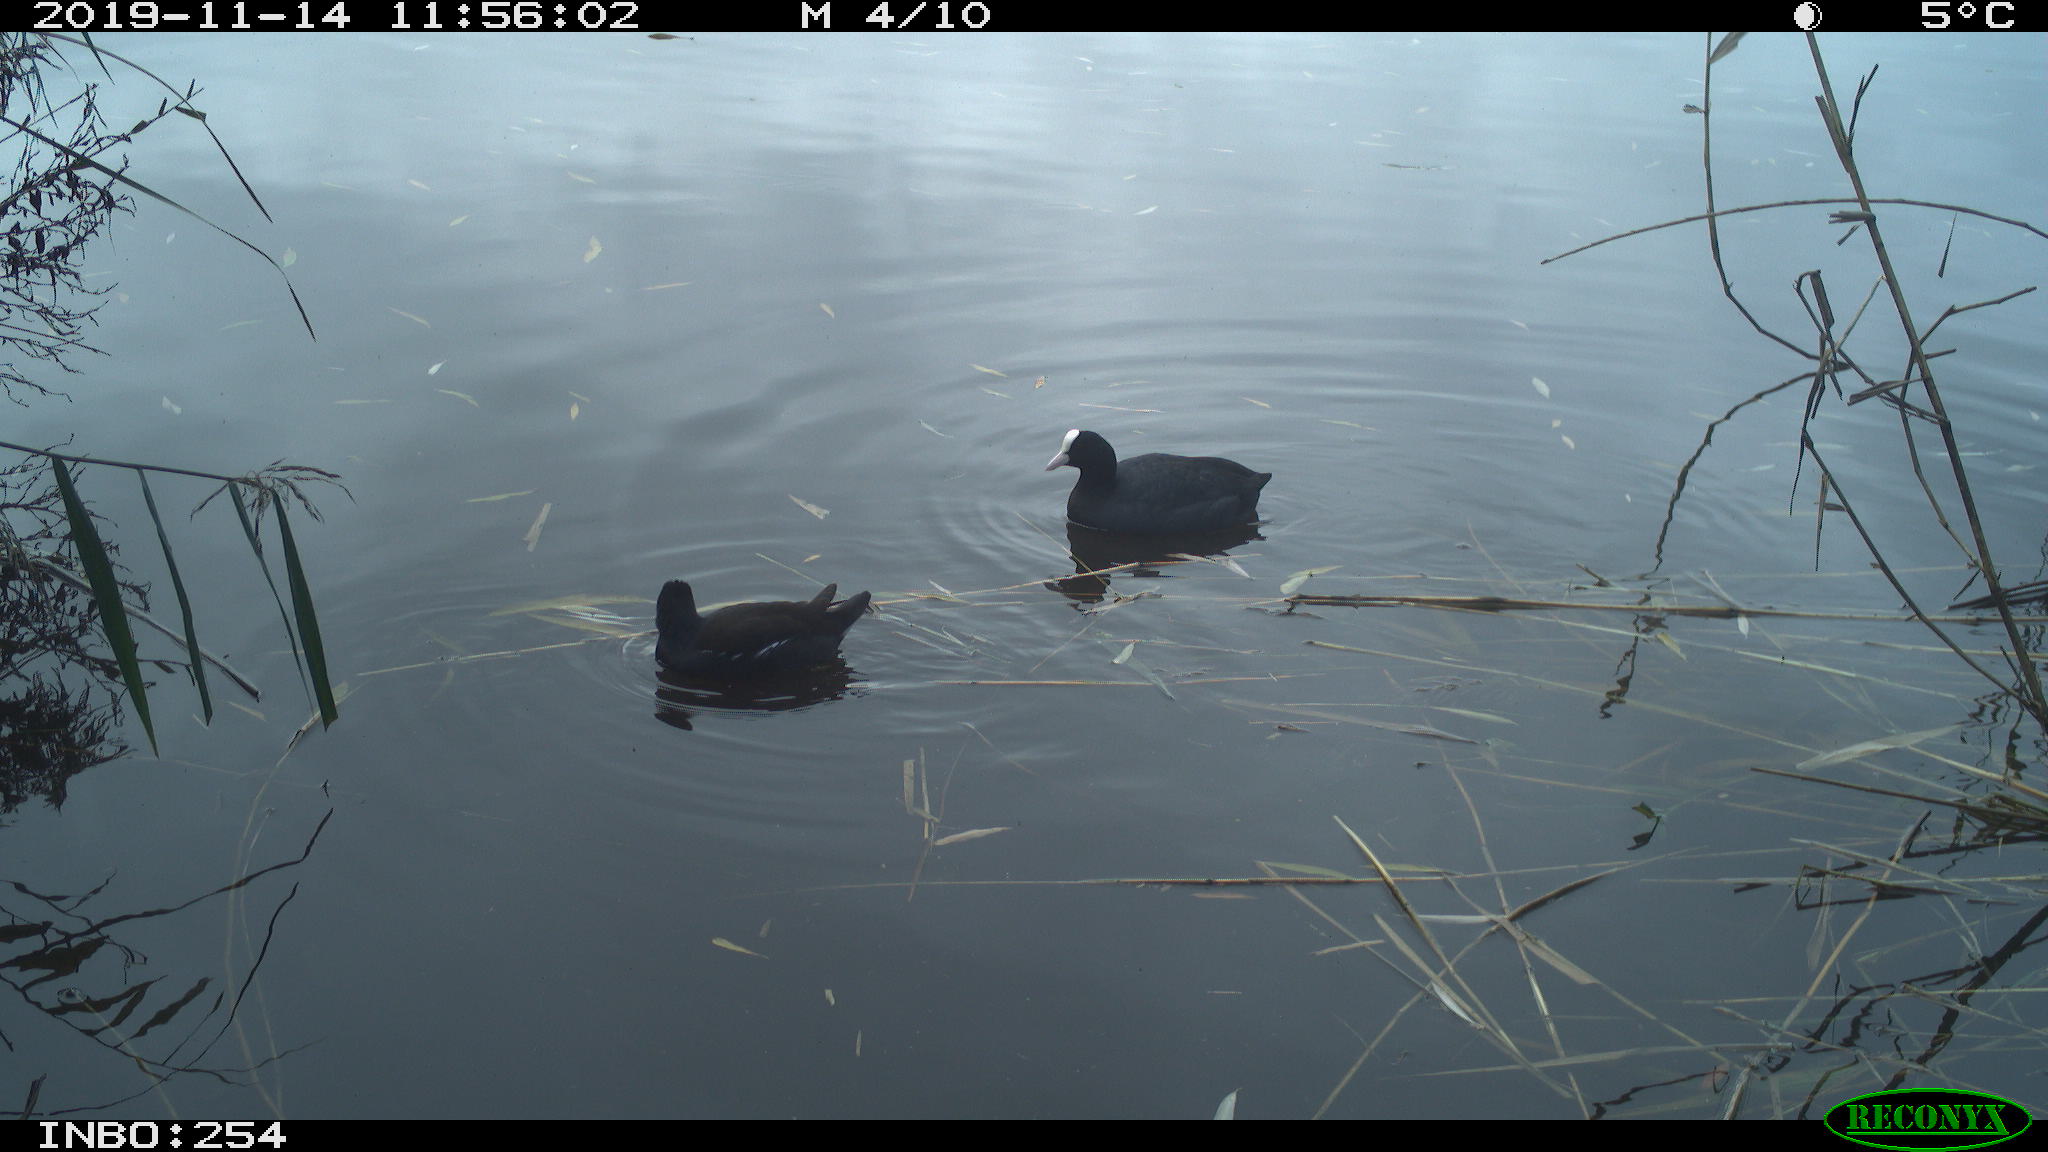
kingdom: Animalia
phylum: Chordata
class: Aves
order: Gruiformes
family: Rallidae
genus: Fulica
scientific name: Fulica atra
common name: Eurasian coot
